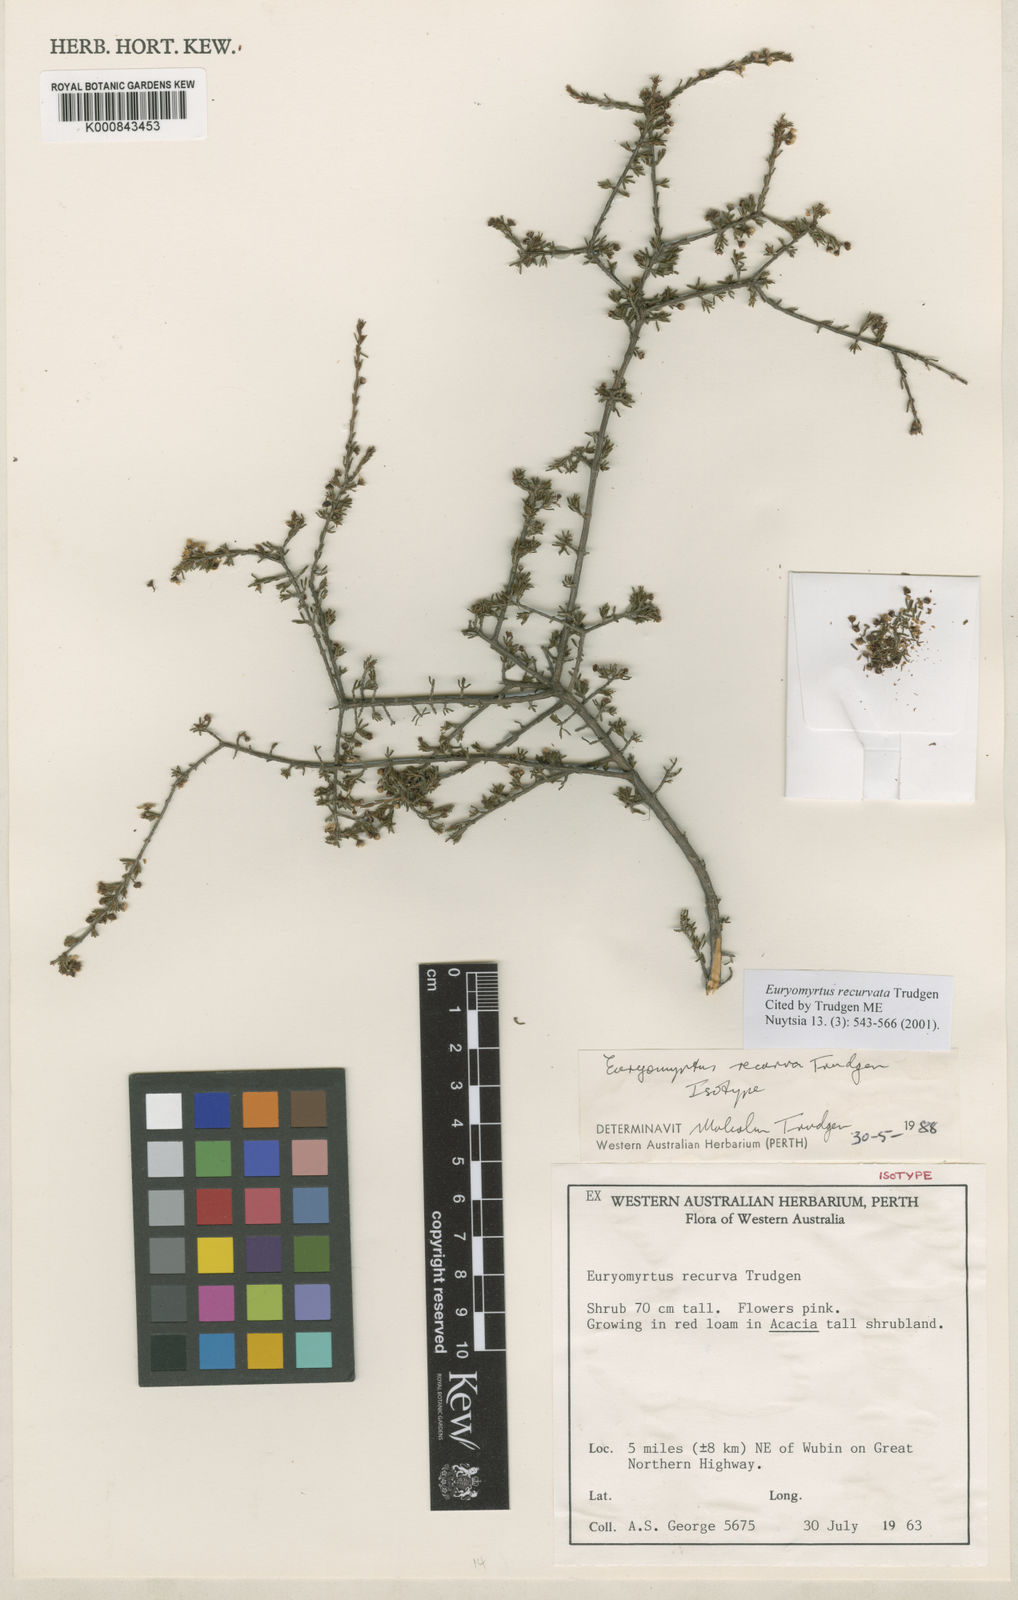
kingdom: Plantae
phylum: Tracheophyta
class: Magnoliopsida
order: Myrtales
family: Myrtaceae
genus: Euryomyrtus
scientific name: Euryomyrtus recurva
